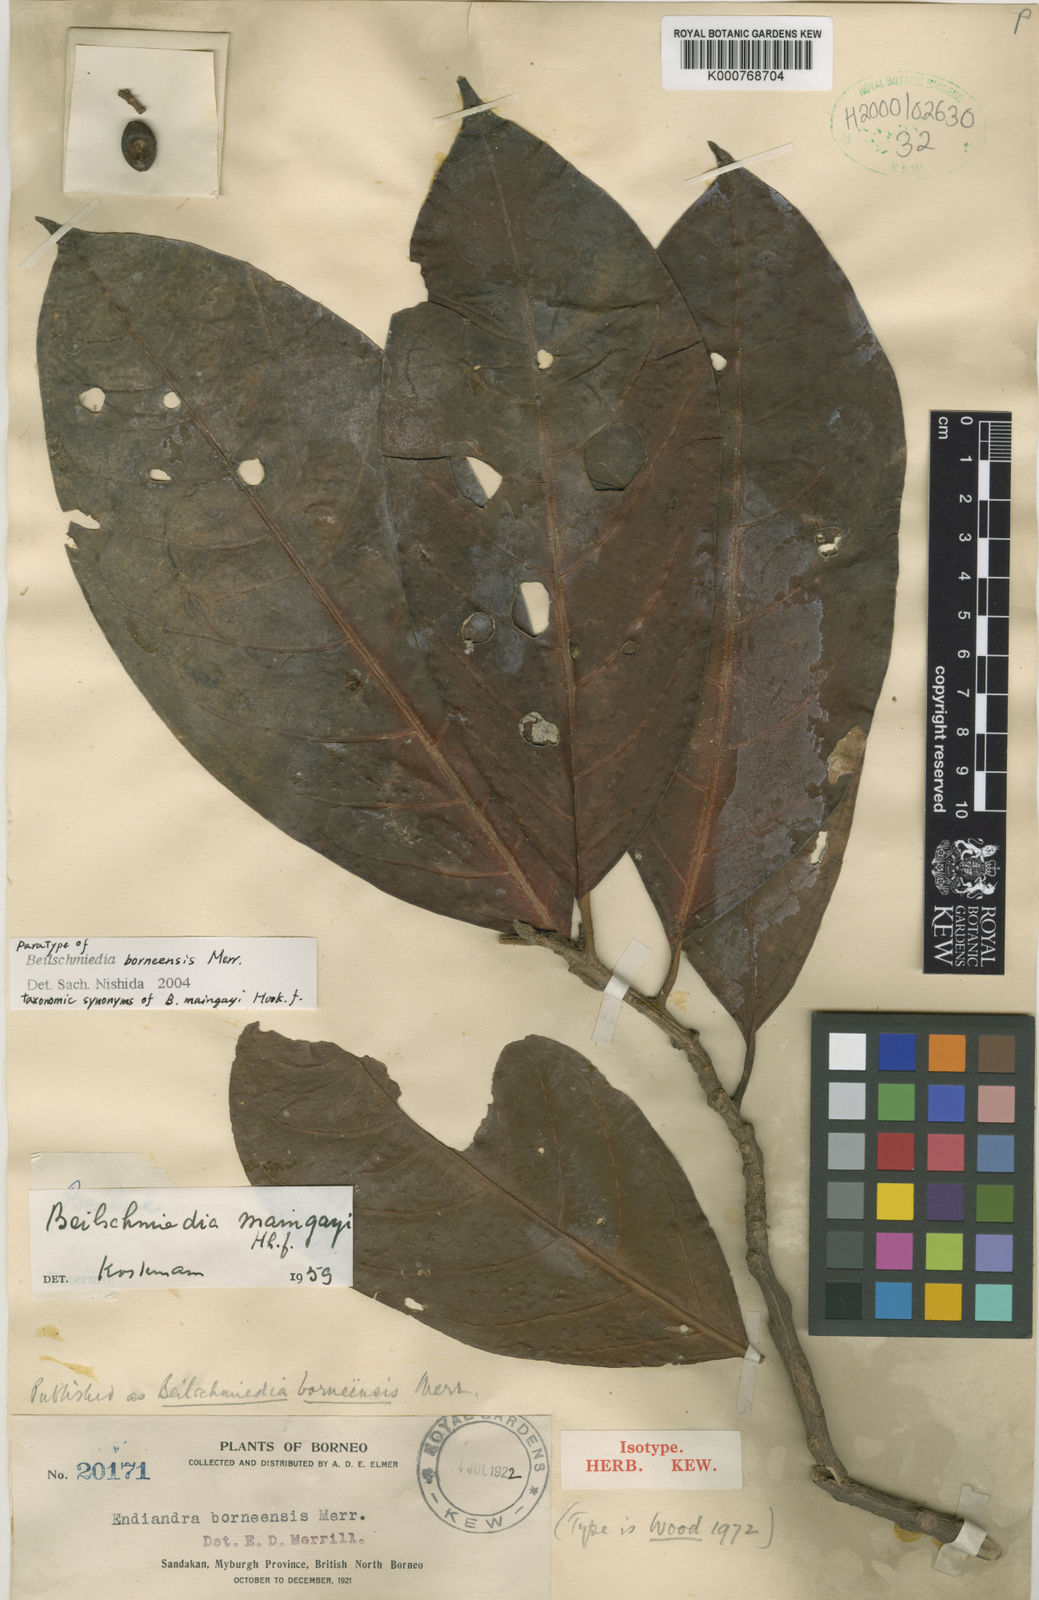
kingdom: Plantae
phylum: Tracheophyta
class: Magnoliopsida
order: Laurales
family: Lauraceae
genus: Beilschmiedia
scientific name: Beilschmiedia maingayi
